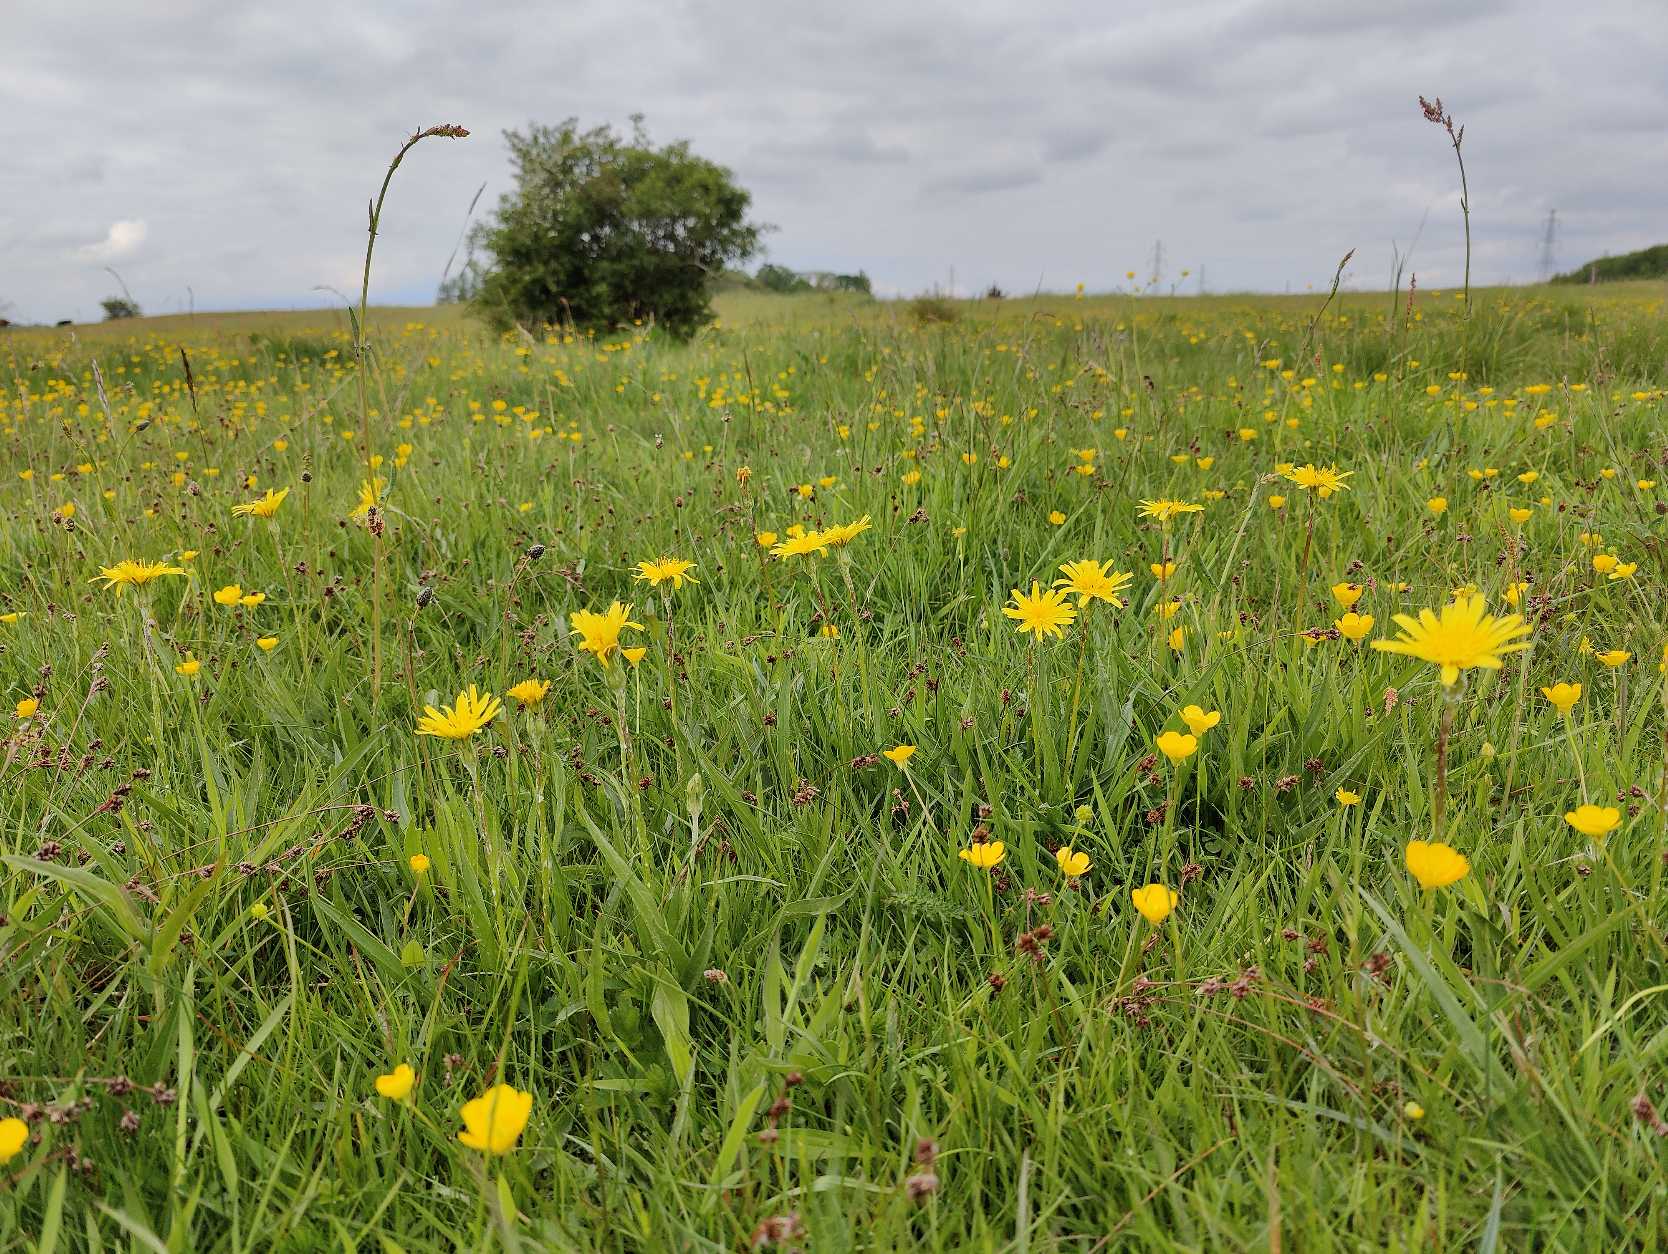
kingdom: Plantae
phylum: Tracheophyta
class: Magnoliopsida
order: Asterales
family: Asteraceae
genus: Scorzonera
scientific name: Scorzonera humilis
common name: Lav skorsoner
